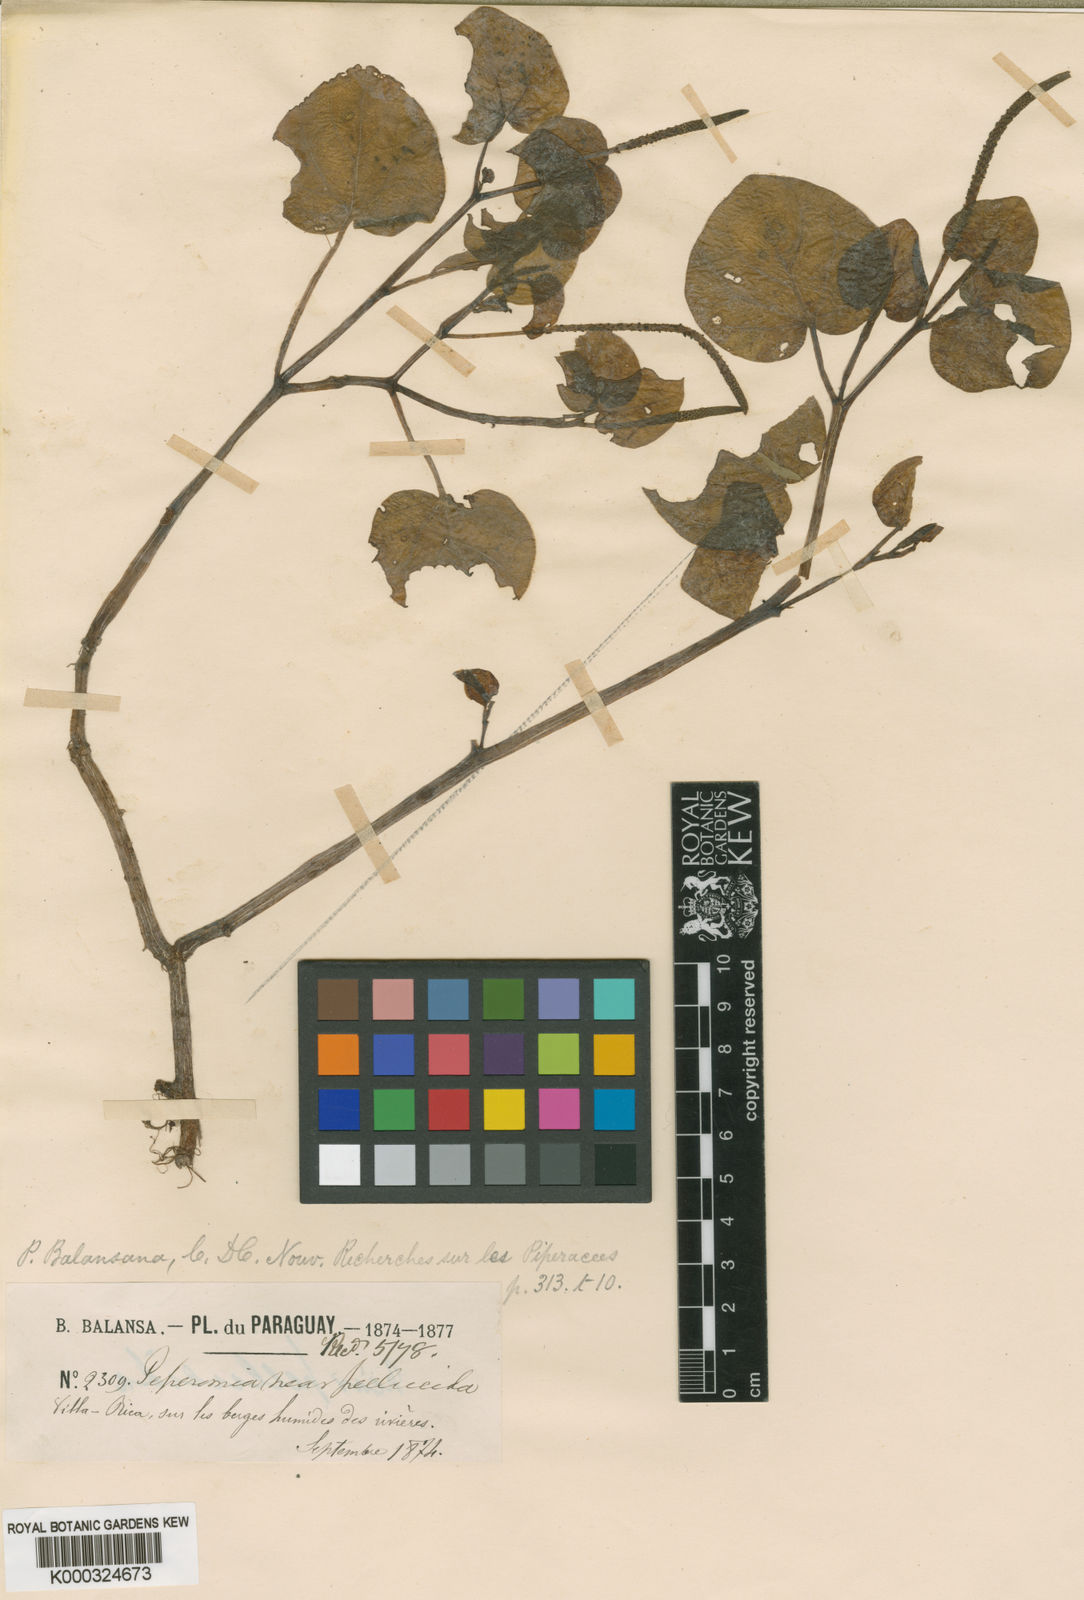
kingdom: Plantae
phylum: Tracheophyta
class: Magnoliopsida
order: Piperales
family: Piperaceae
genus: Peperomia
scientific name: Peperomia barbarana
